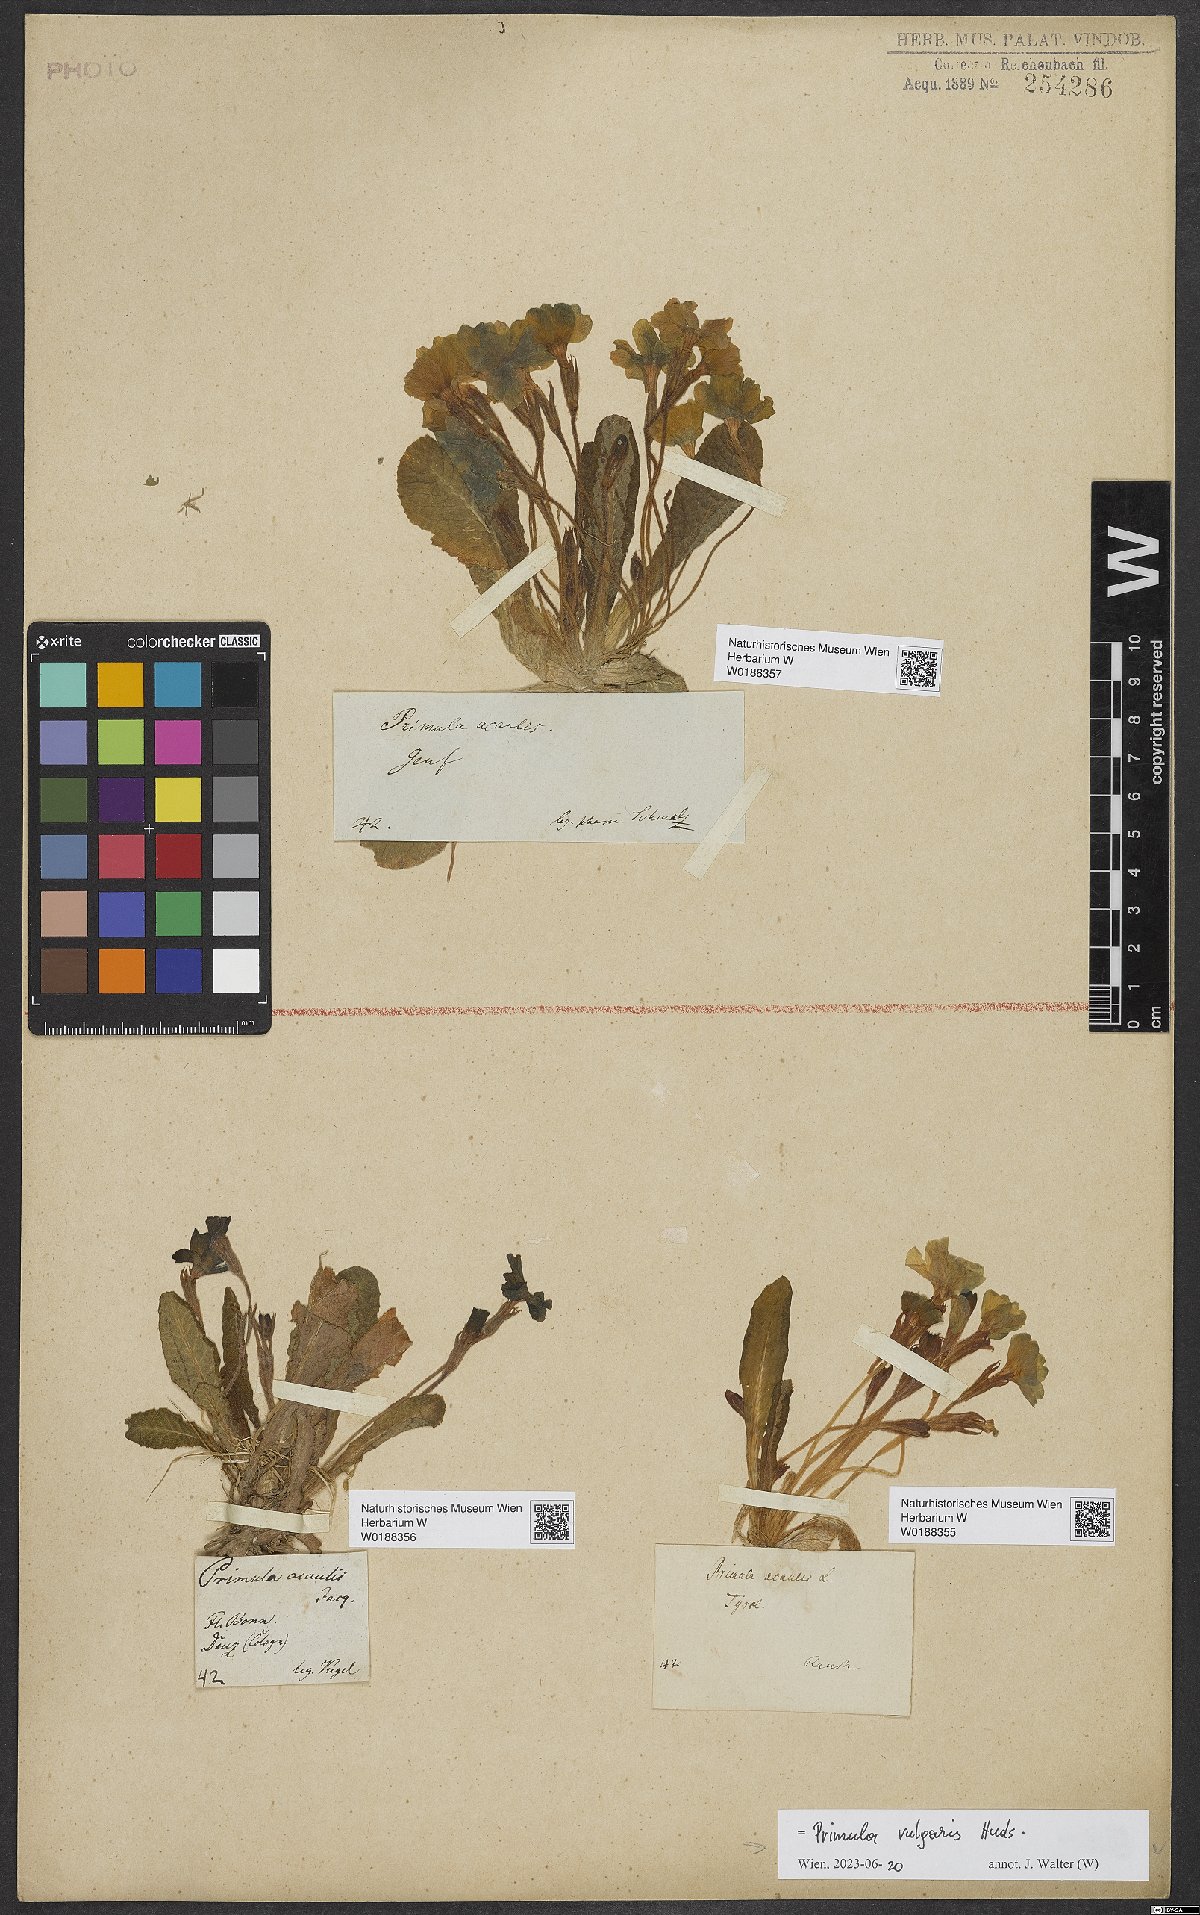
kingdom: Plantae
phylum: Tracheophyta
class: Magnoliopsida
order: Ericales
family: Primulaceae
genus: Primula
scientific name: Primula vulgaris
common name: Primrose
